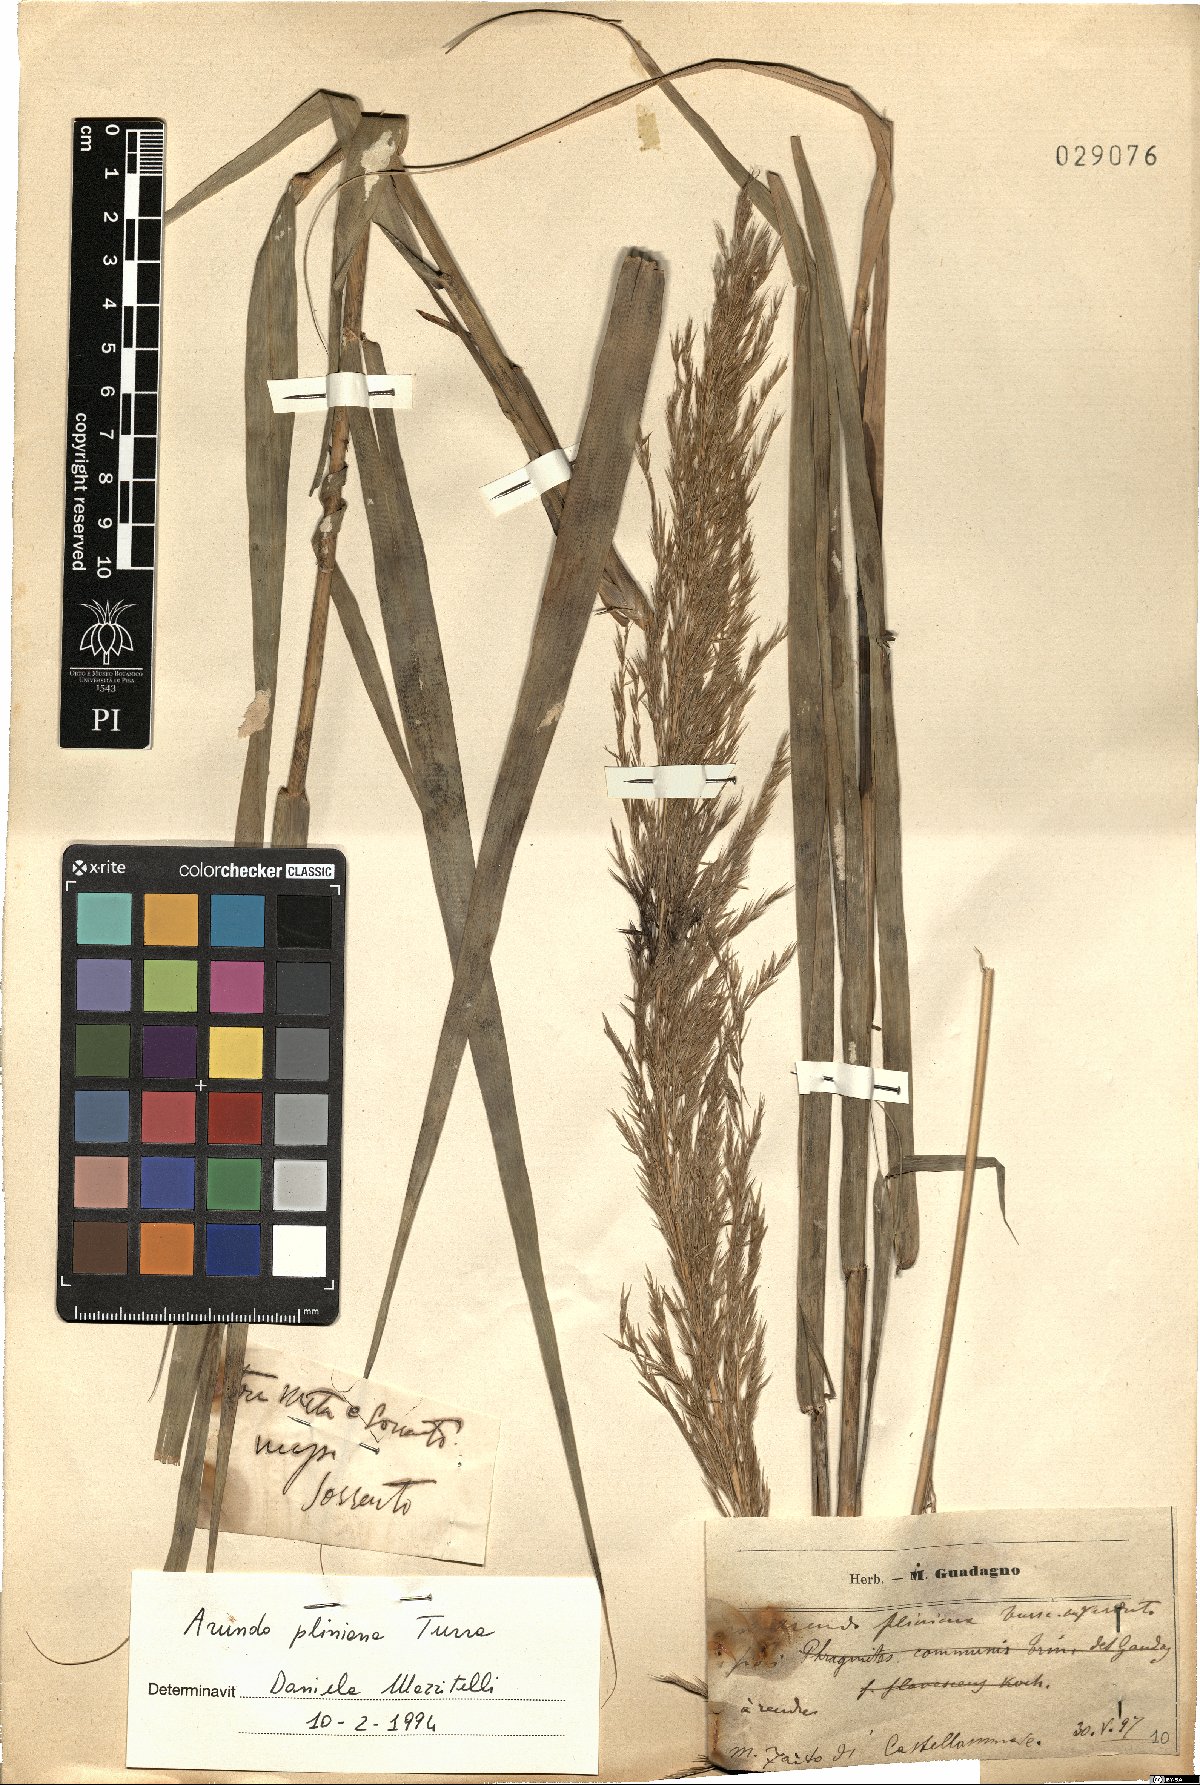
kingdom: Plantae
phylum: Tracheophyta
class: Liliopsida
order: Poales
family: Poaceae
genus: Arundo
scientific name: Arundo plinii
